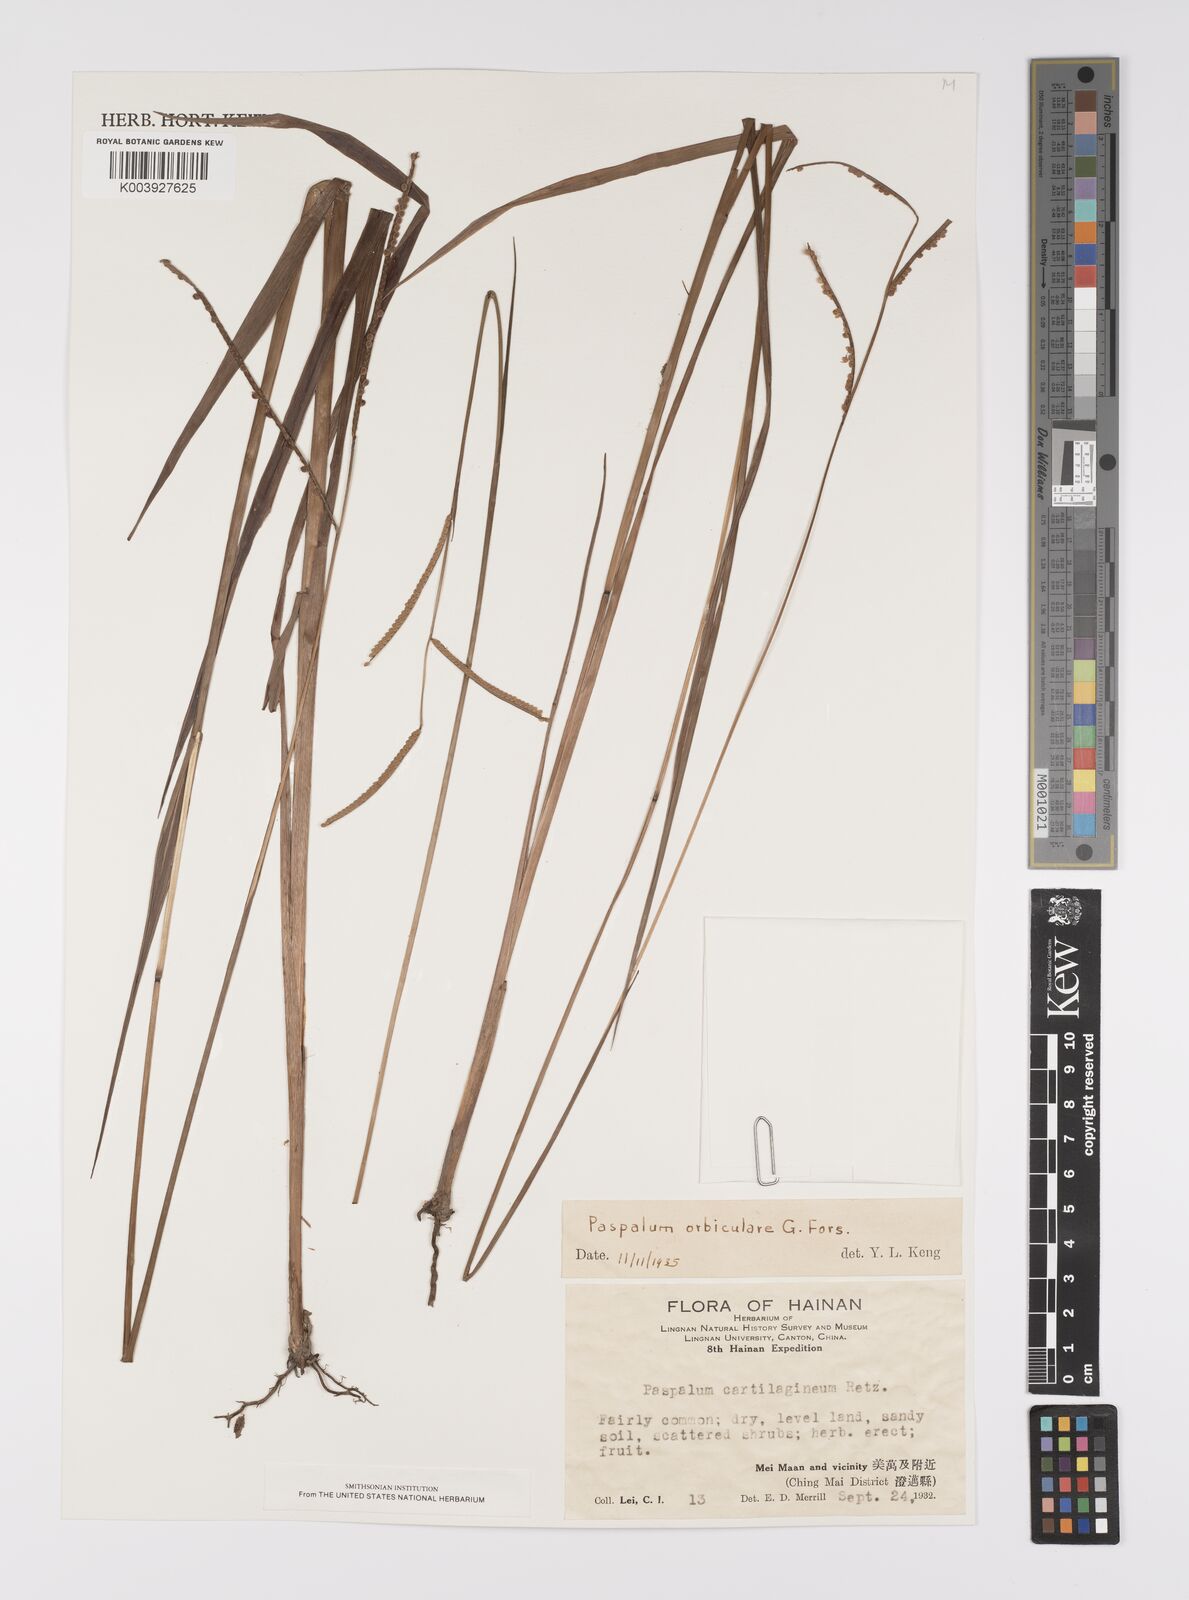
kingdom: Plantae
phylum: Tracheophyta
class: Liliopsida
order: Poales
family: Poaceae
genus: Paspalum
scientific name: Paspalum orbiculare
